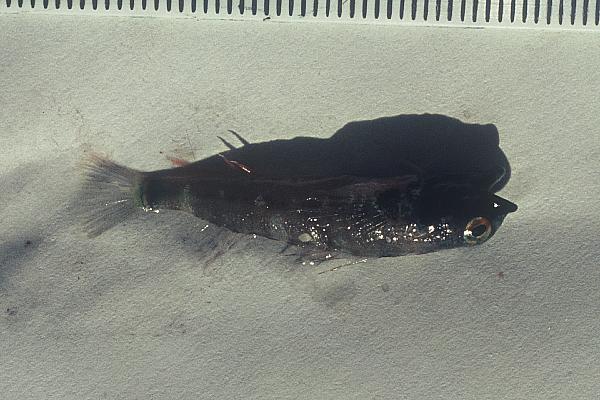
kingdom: Animalia
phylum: Chordata
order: Perciformes
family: Tripterygiidae
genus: Enneapterygius
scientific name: Enneapterygius elegans
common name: Elegant triplefin
